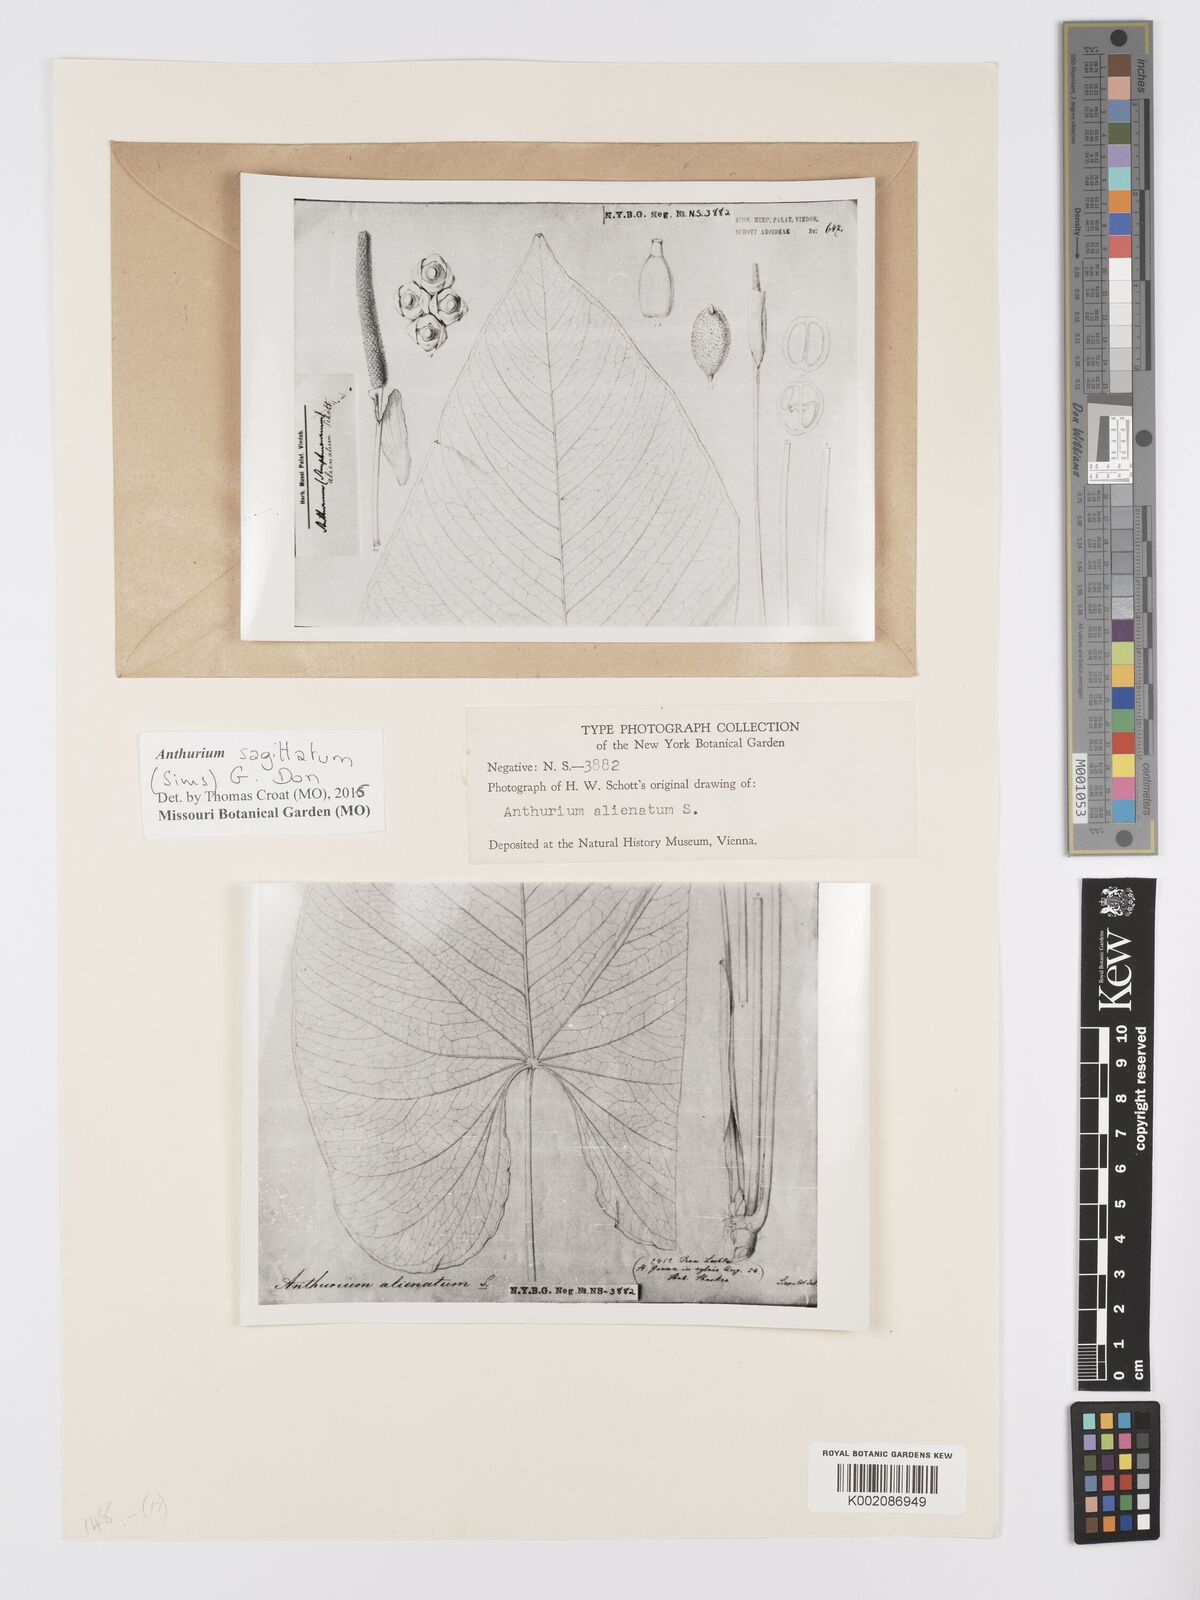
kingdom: Plantae
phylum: Tracheophyta
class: Liliopsida
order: Alismatales
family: Araceae
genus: Anthurium
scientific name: Anthurium sagittatum
